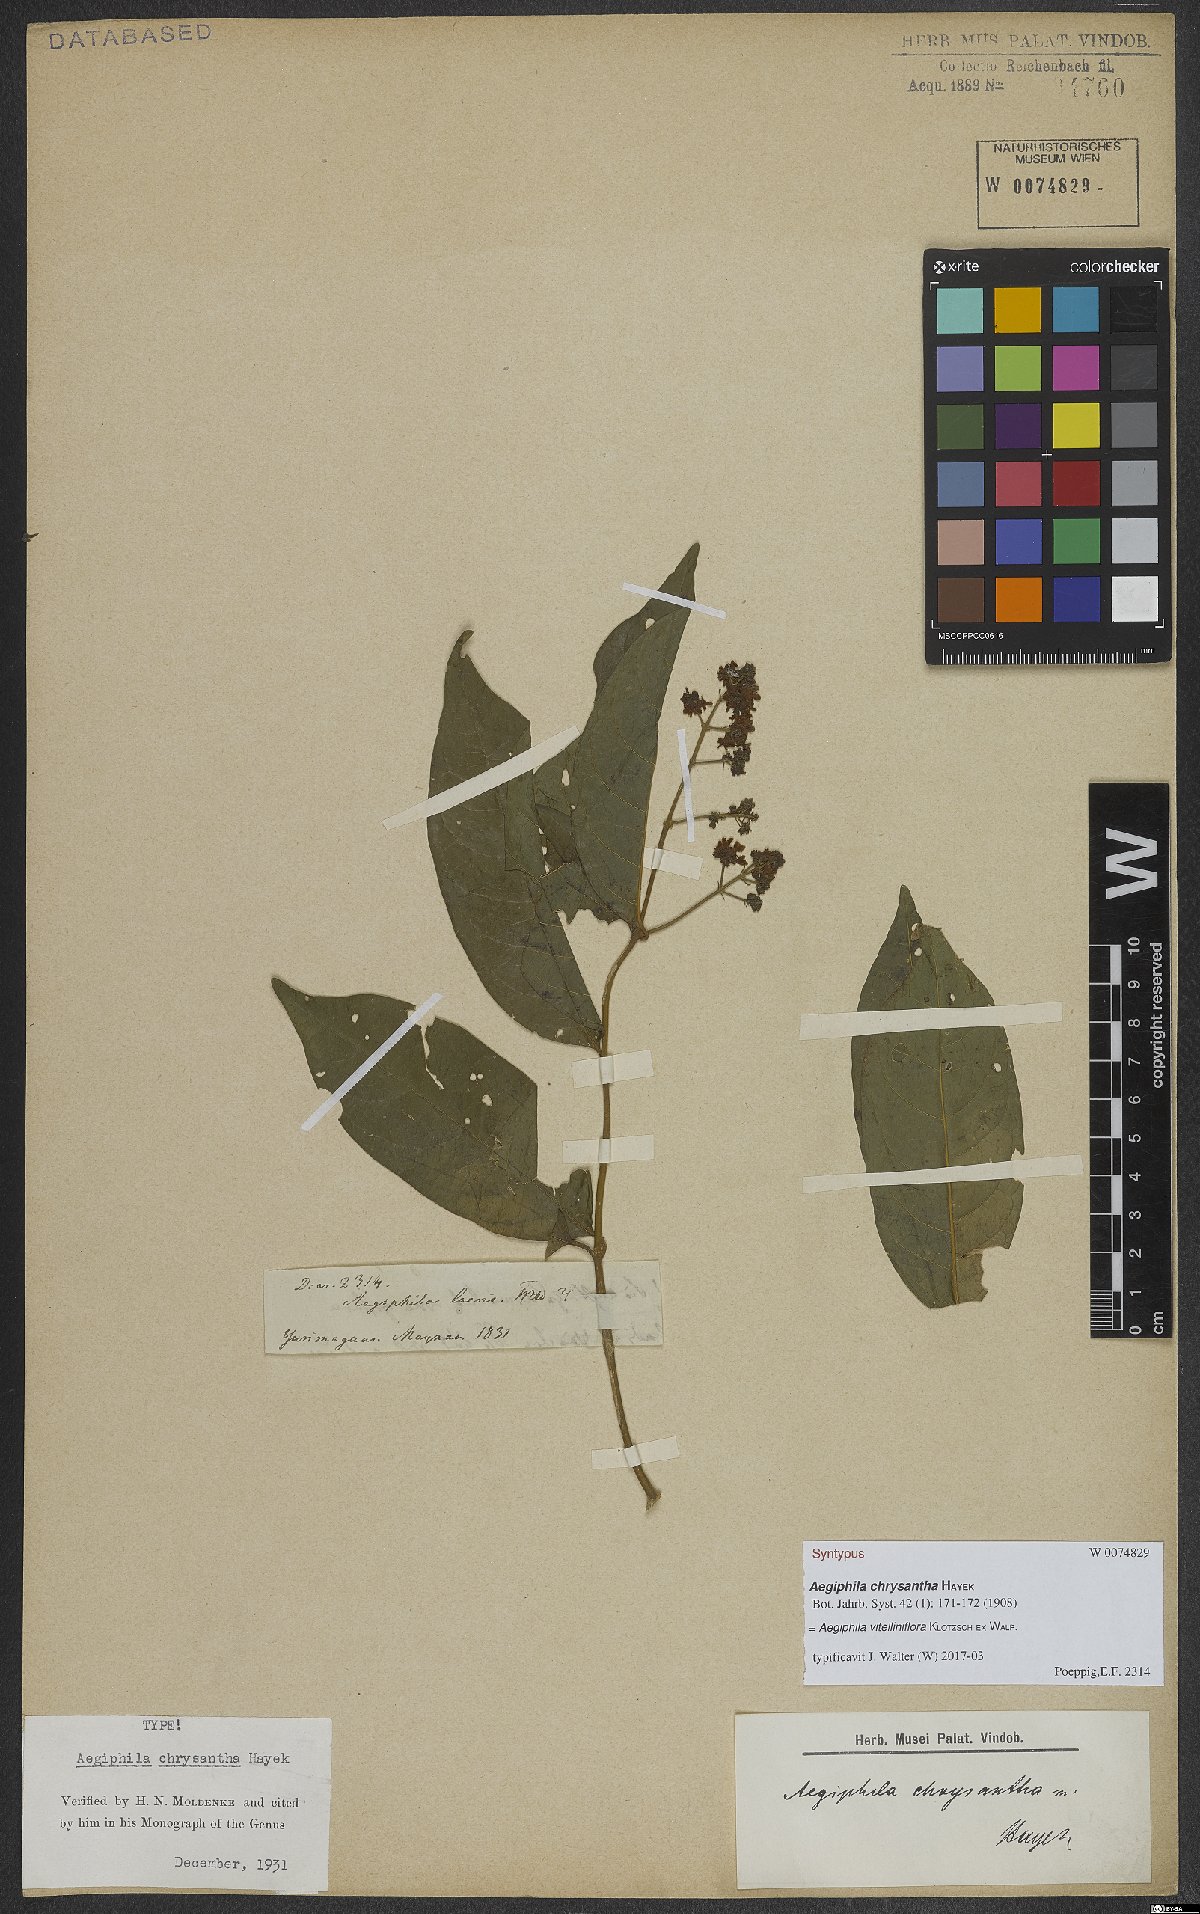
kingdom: Plantae
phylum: Tracheophyta
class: Magnoliopsida
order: Lamiales
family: Lamiaceae
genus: Aegiphila
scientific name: Aegiphila vitelliniflora
